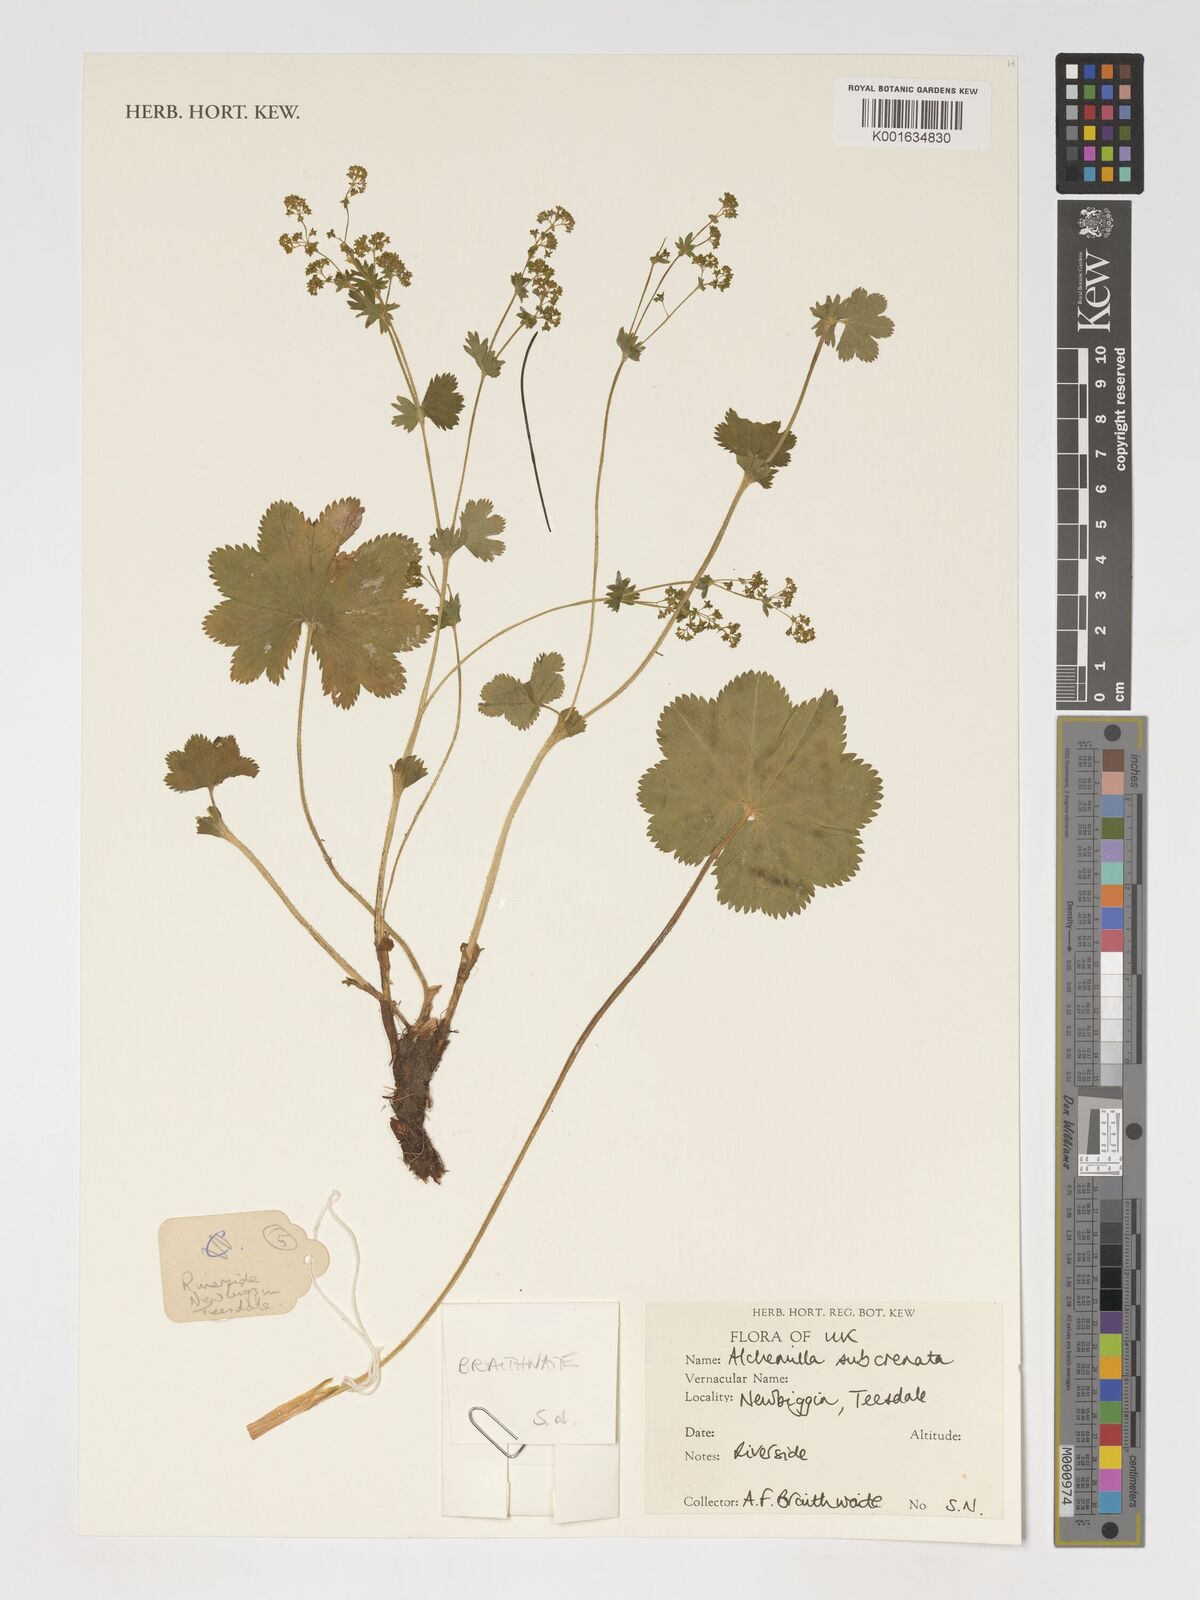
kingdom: Plantae
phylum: Tracheophyta
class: Magnoliopsida
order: Rosales
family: Rosaceae
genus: Alchemilla
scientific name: Alchemilla subcrenata
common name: Broadtooth lady's mantle
